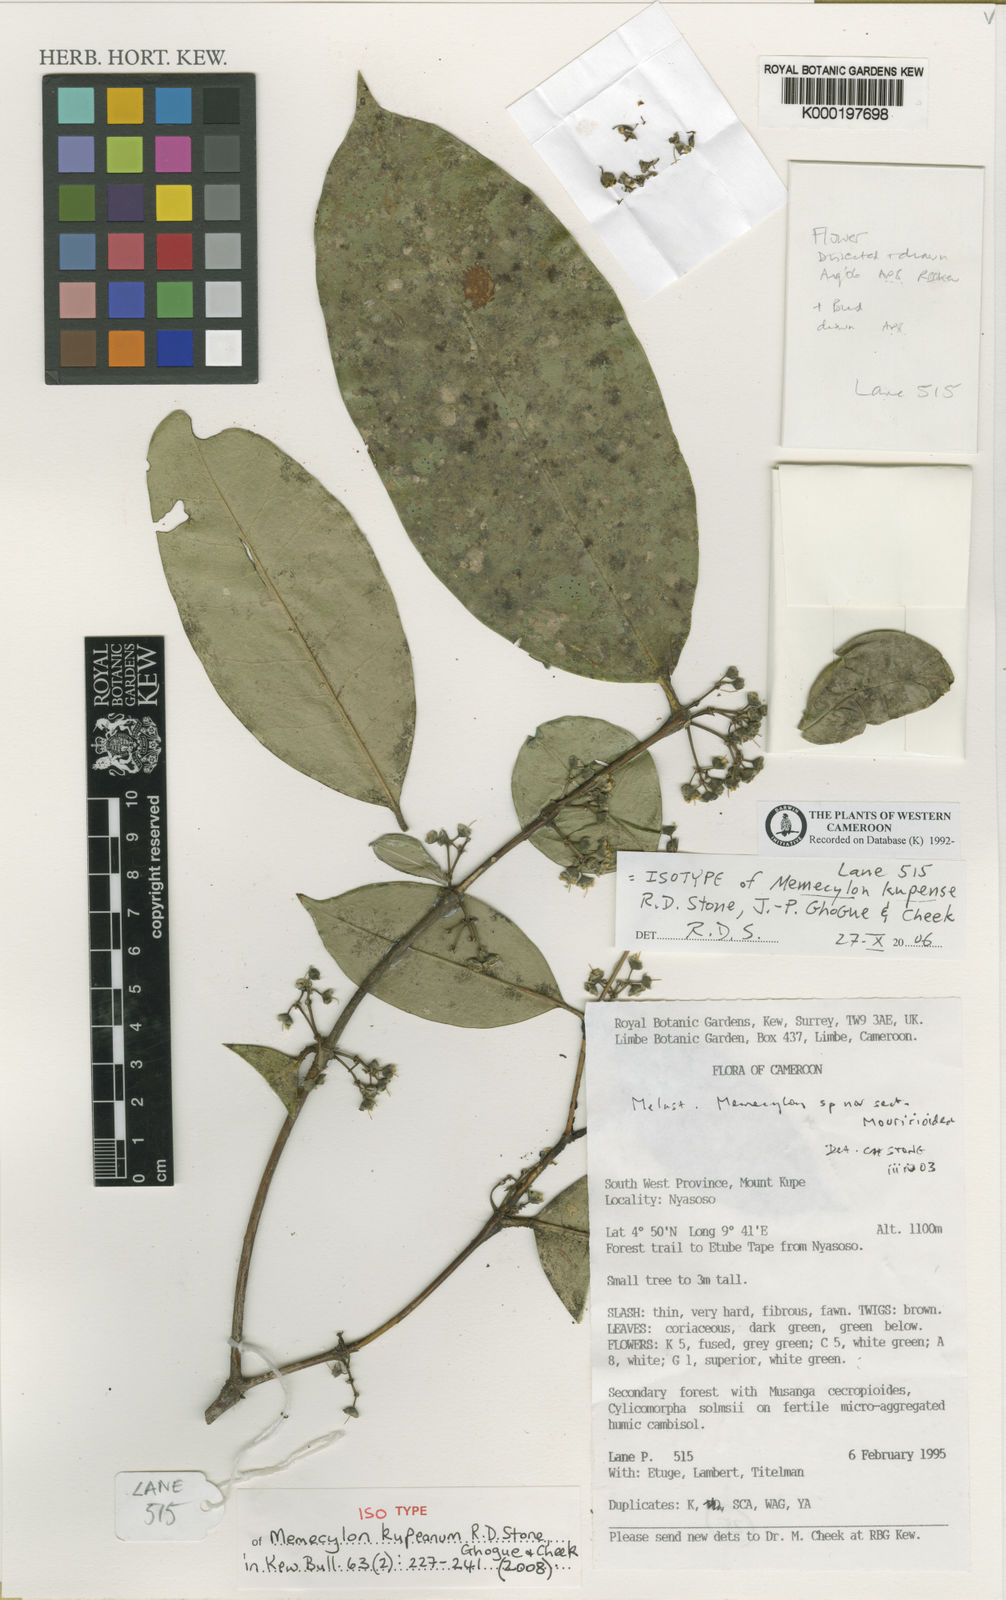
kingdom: Plantae
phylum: Tracheophyta
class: Magnoliopsida
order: Myrtales
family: Melastomataceae
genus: Memecylon
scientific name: Memecylon kupeanum
